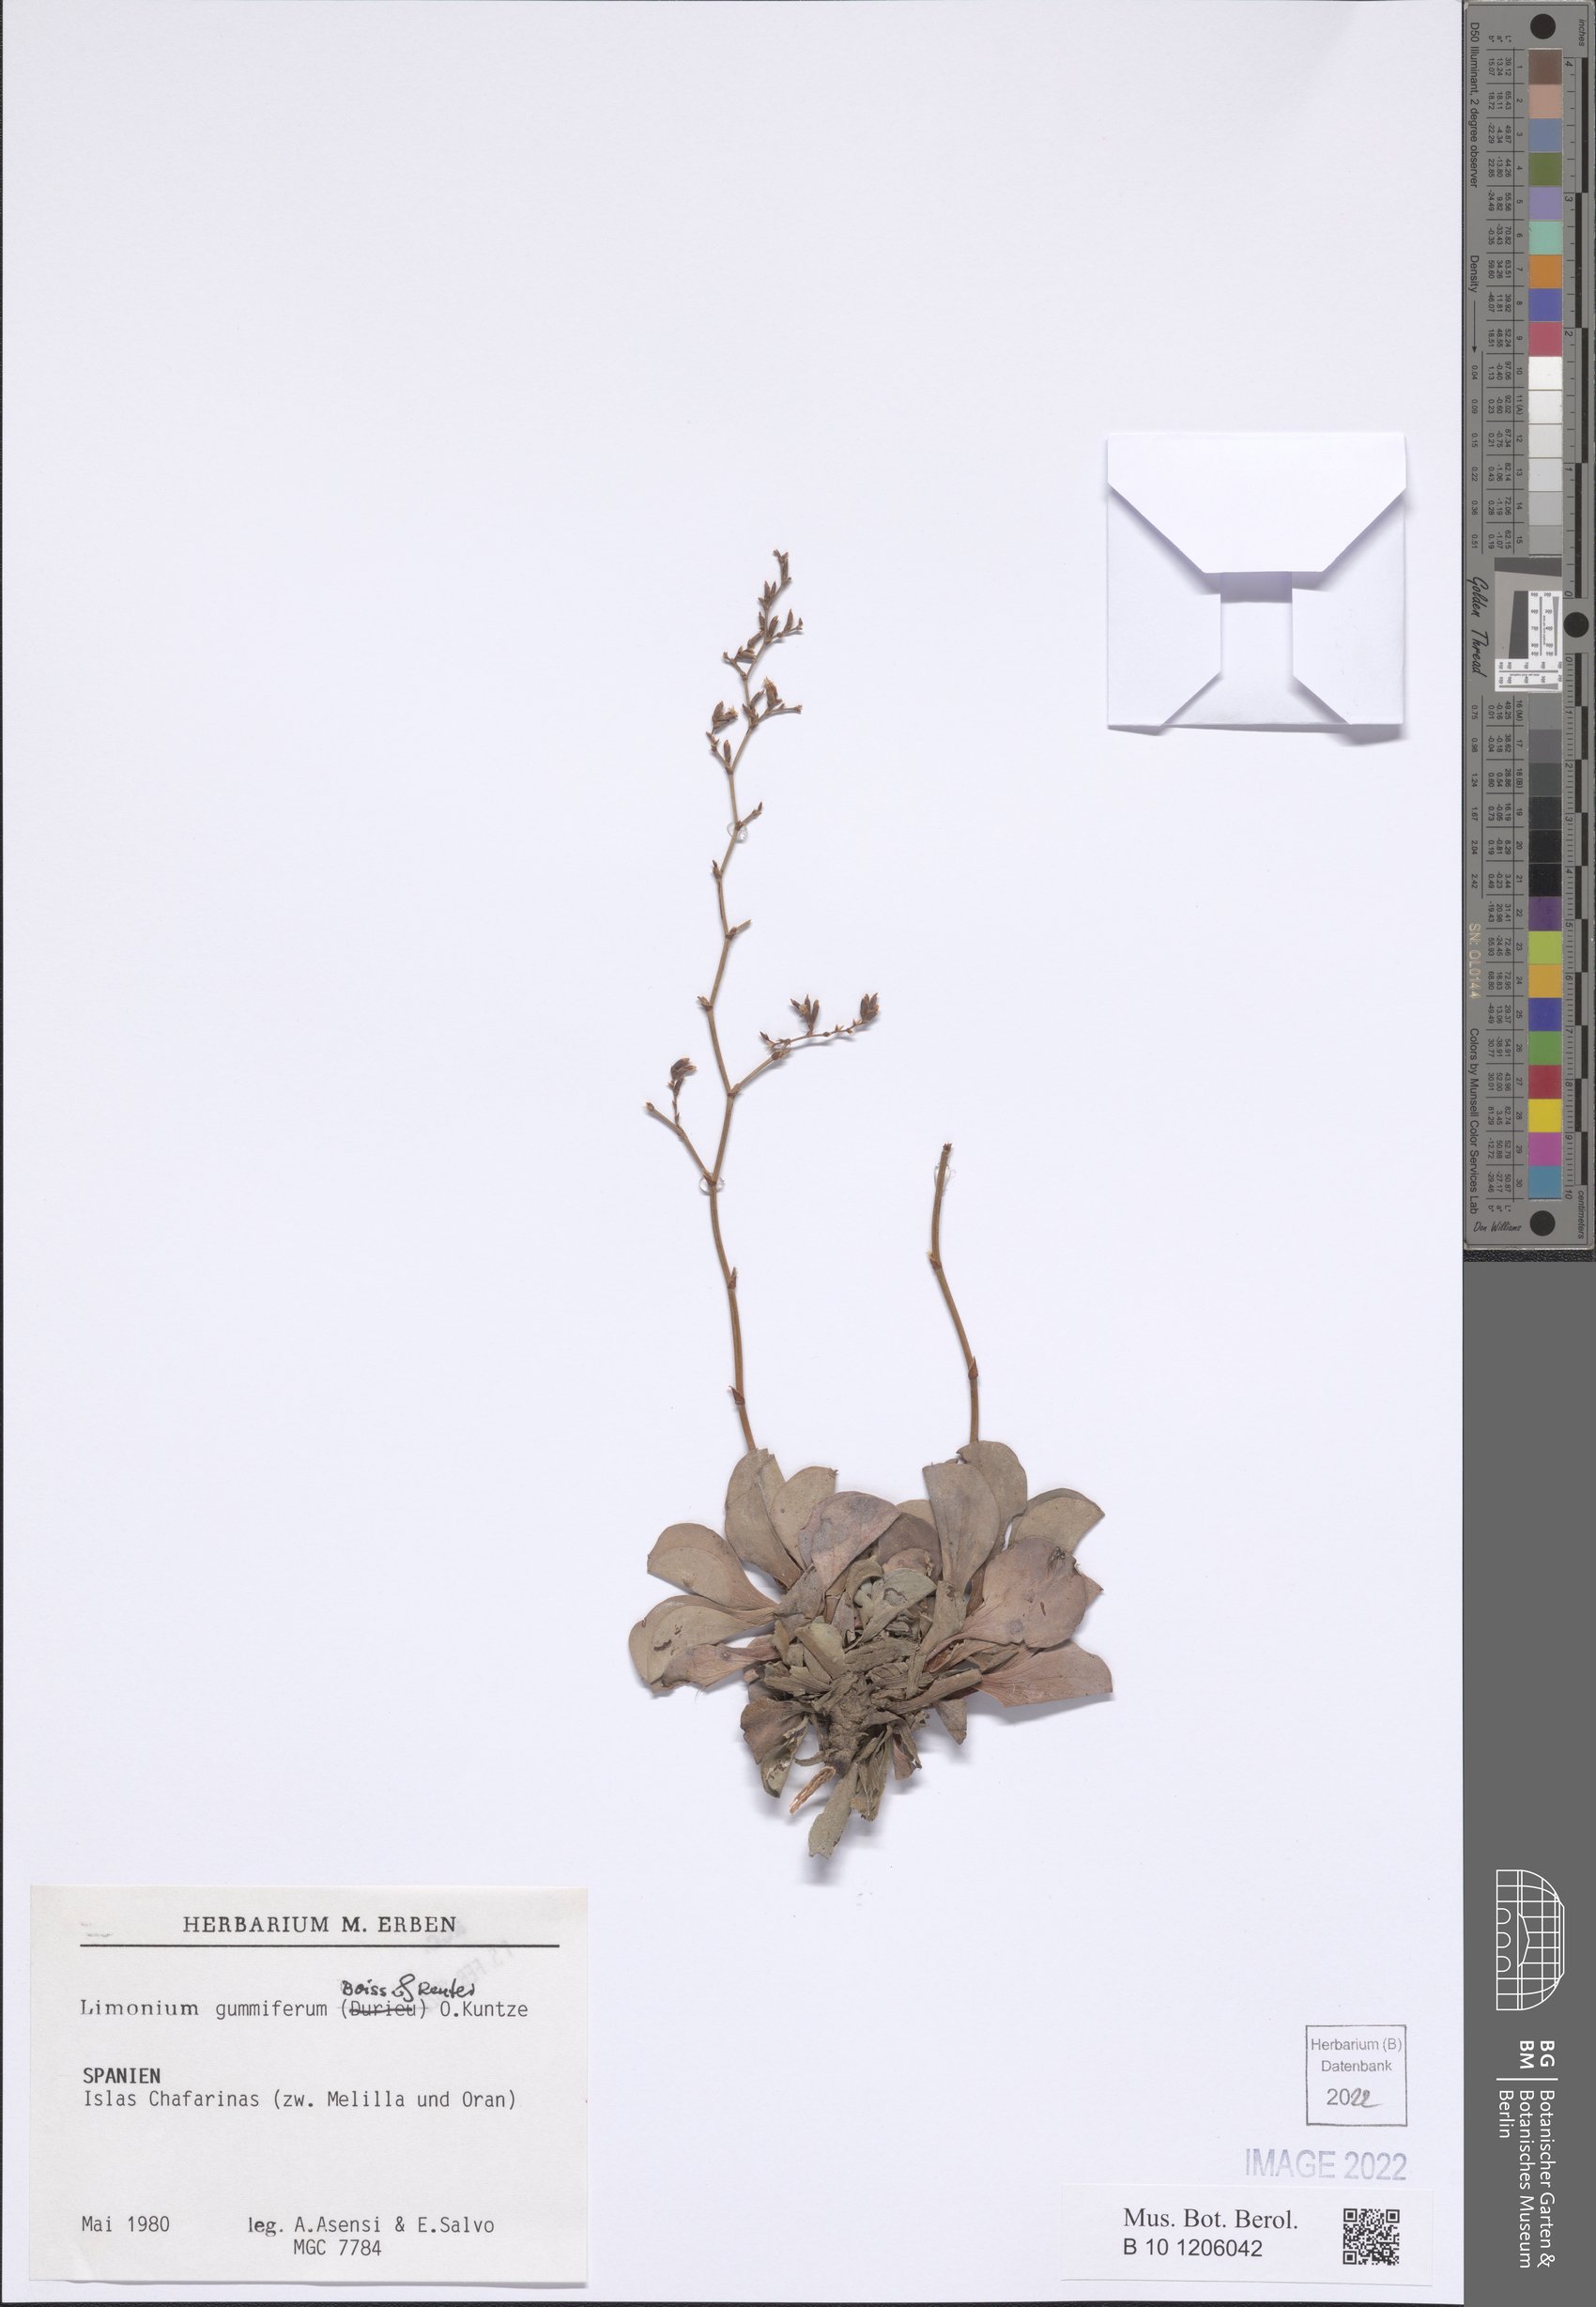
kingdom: Plantae
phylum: Tracheophyta
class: Magnoliopsida
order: Caryophyllales
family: Plumbaginaceae
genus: Limonium
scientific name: Limonium gummiferum
